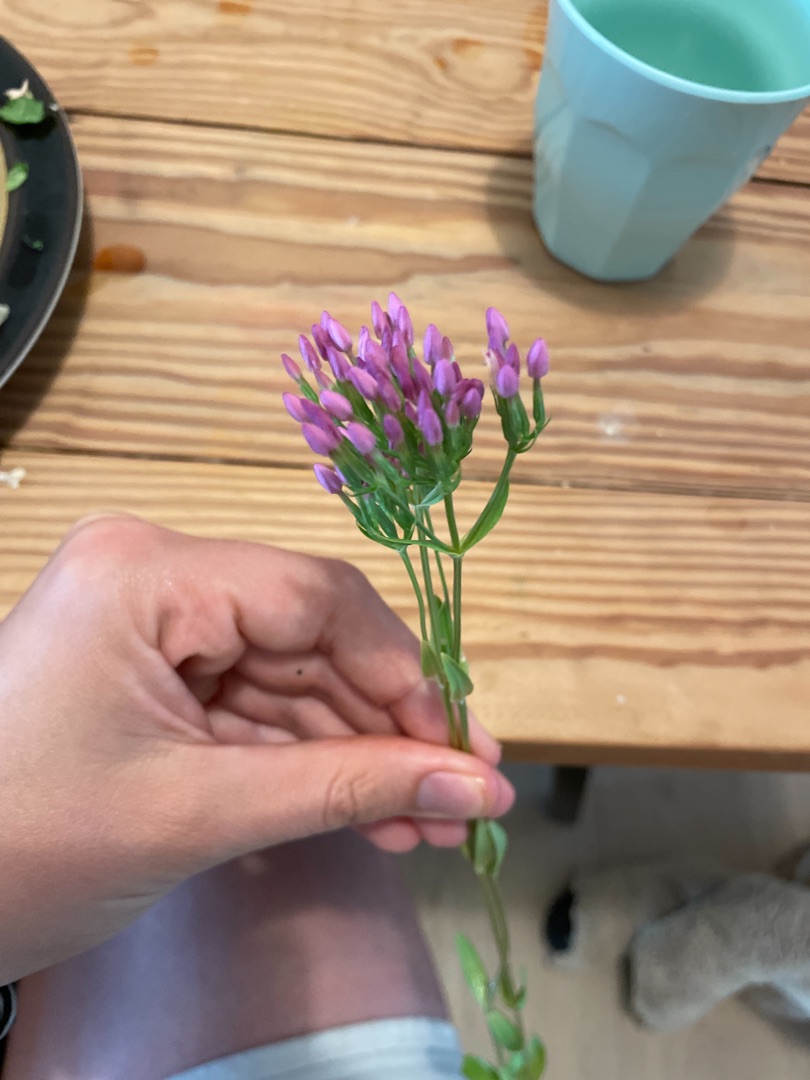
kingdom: Plantae
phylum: Tracheophyta
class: Magnoliopsida
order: Gentianales
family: Gentianaceae
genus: Centaurium
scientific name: Centaurium erythraea
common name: Mark-tusindgylden
